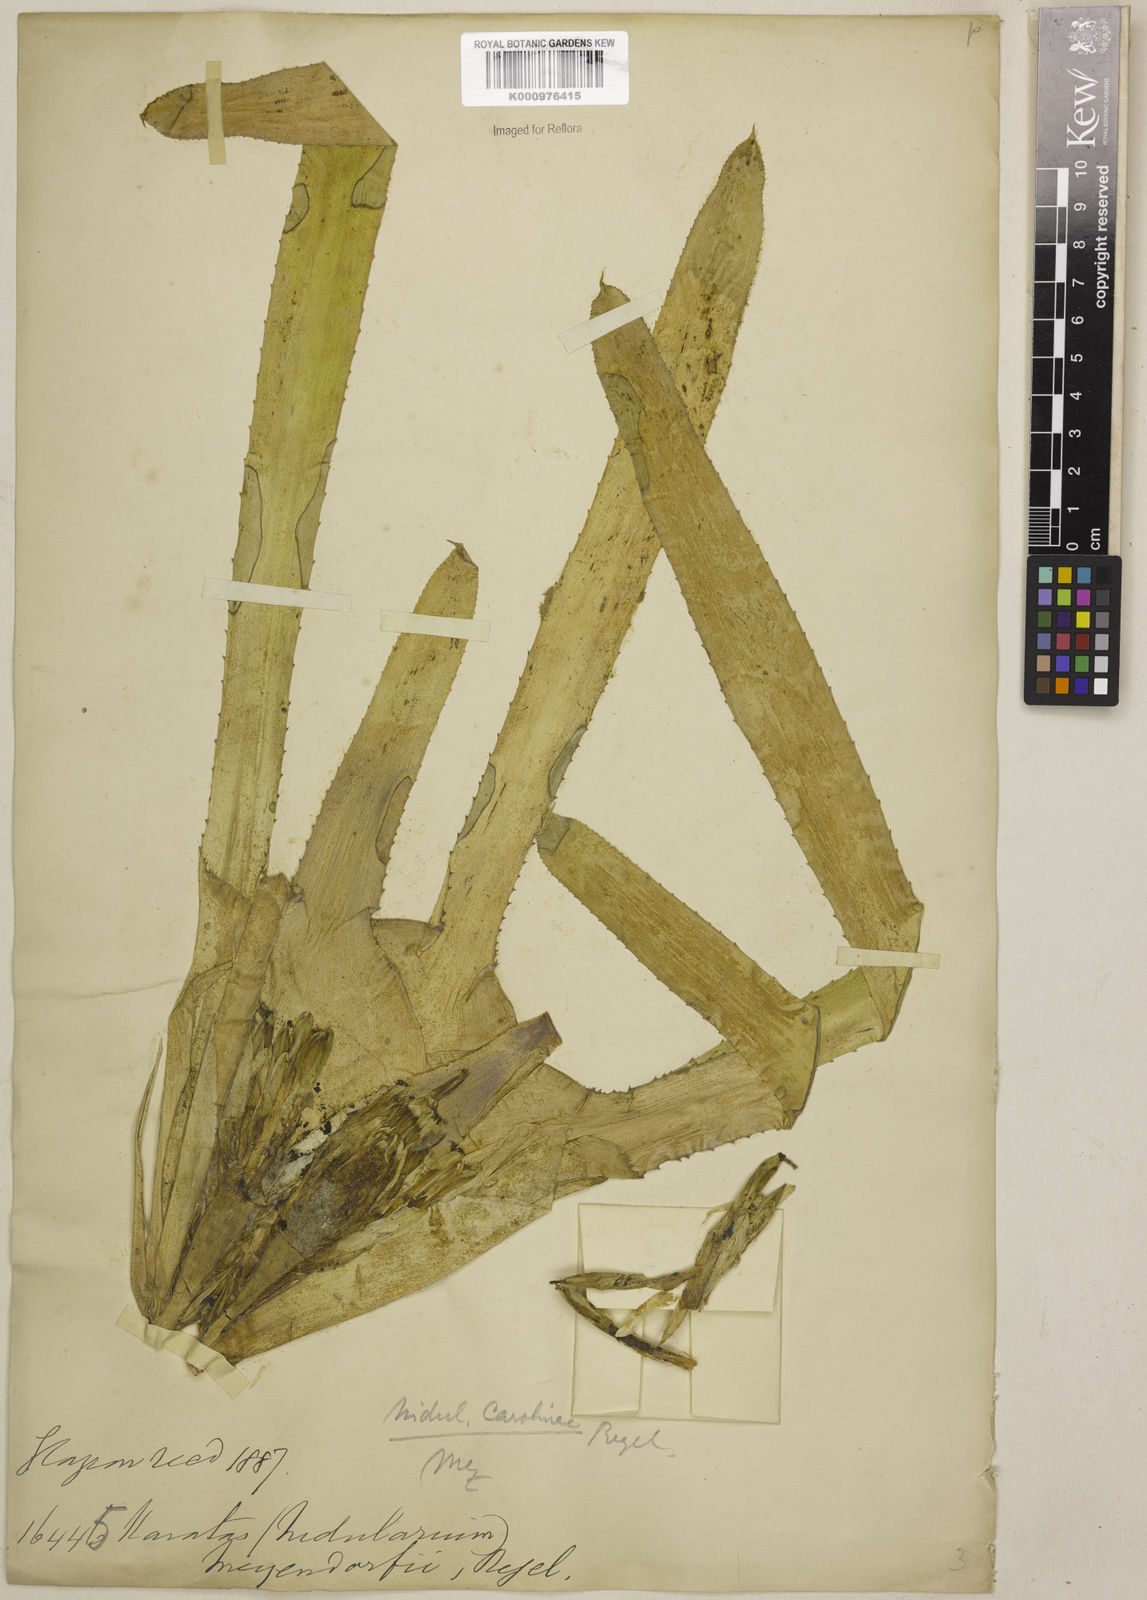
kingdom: Plantae
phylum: Tracheophyta
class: Liliopsida
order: Poales
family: Bromeliaceae
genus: Neoregelia
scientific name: Neoregelia carolinae
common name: Blushing bromeliad
